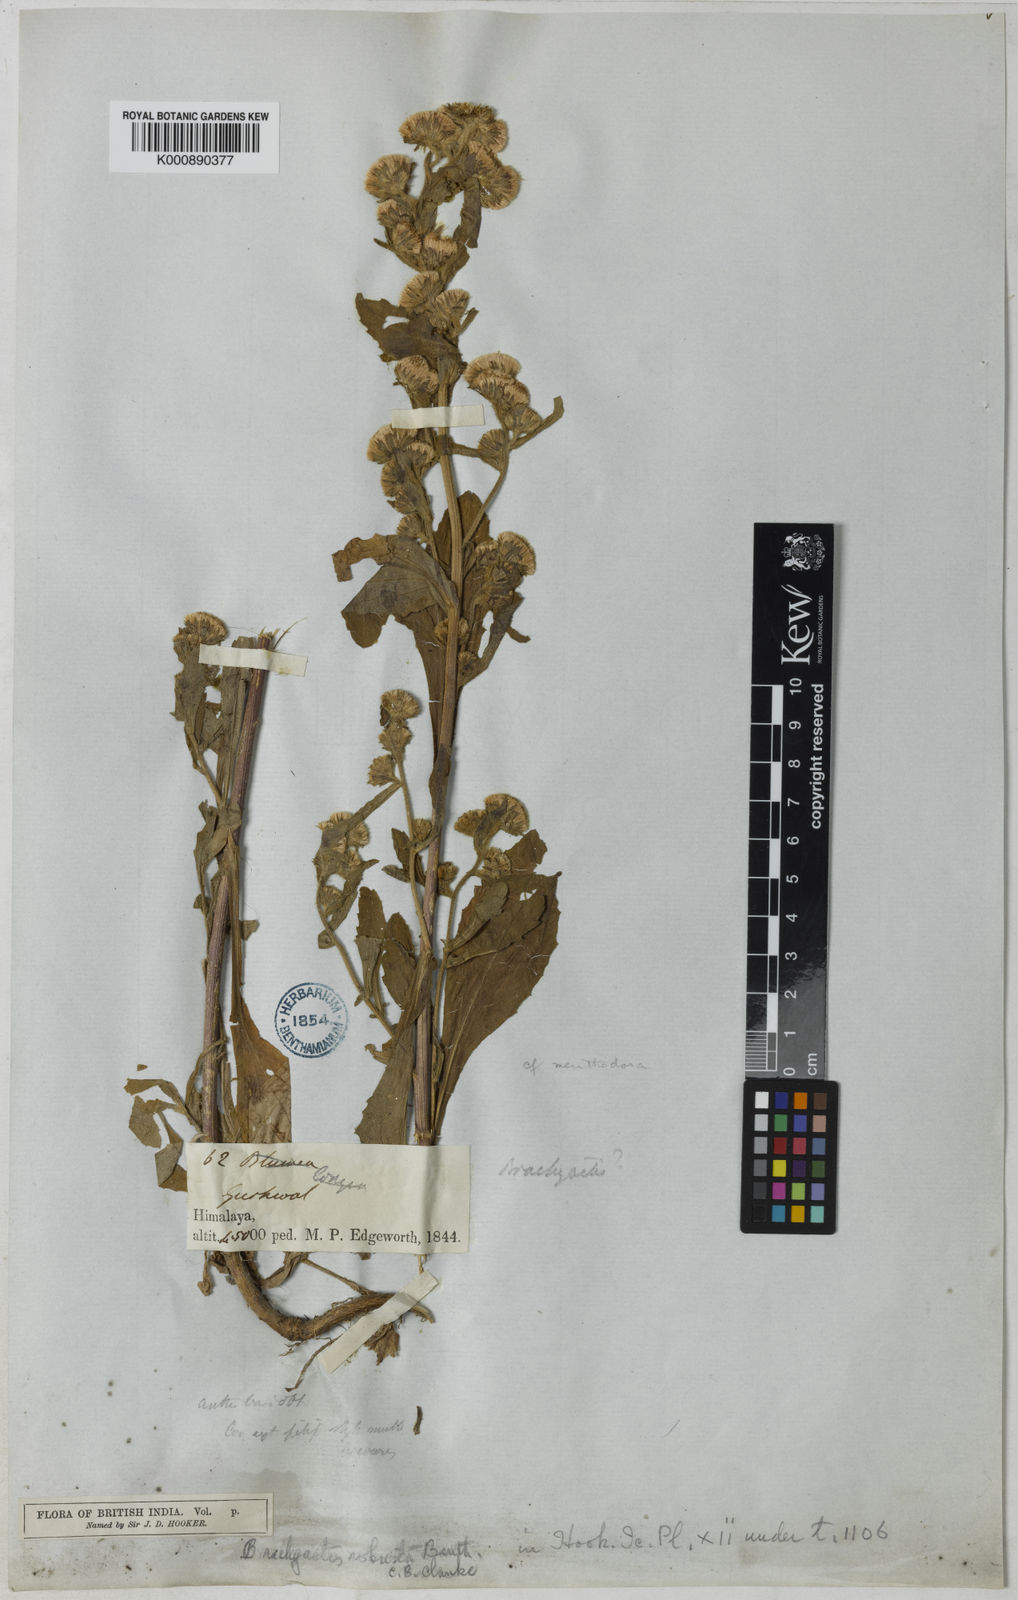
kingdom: Plantae
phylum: Tracheophyta
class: Magnoliopsida
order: Asterales
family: Asteraceae
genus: Aster
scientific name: Aster
